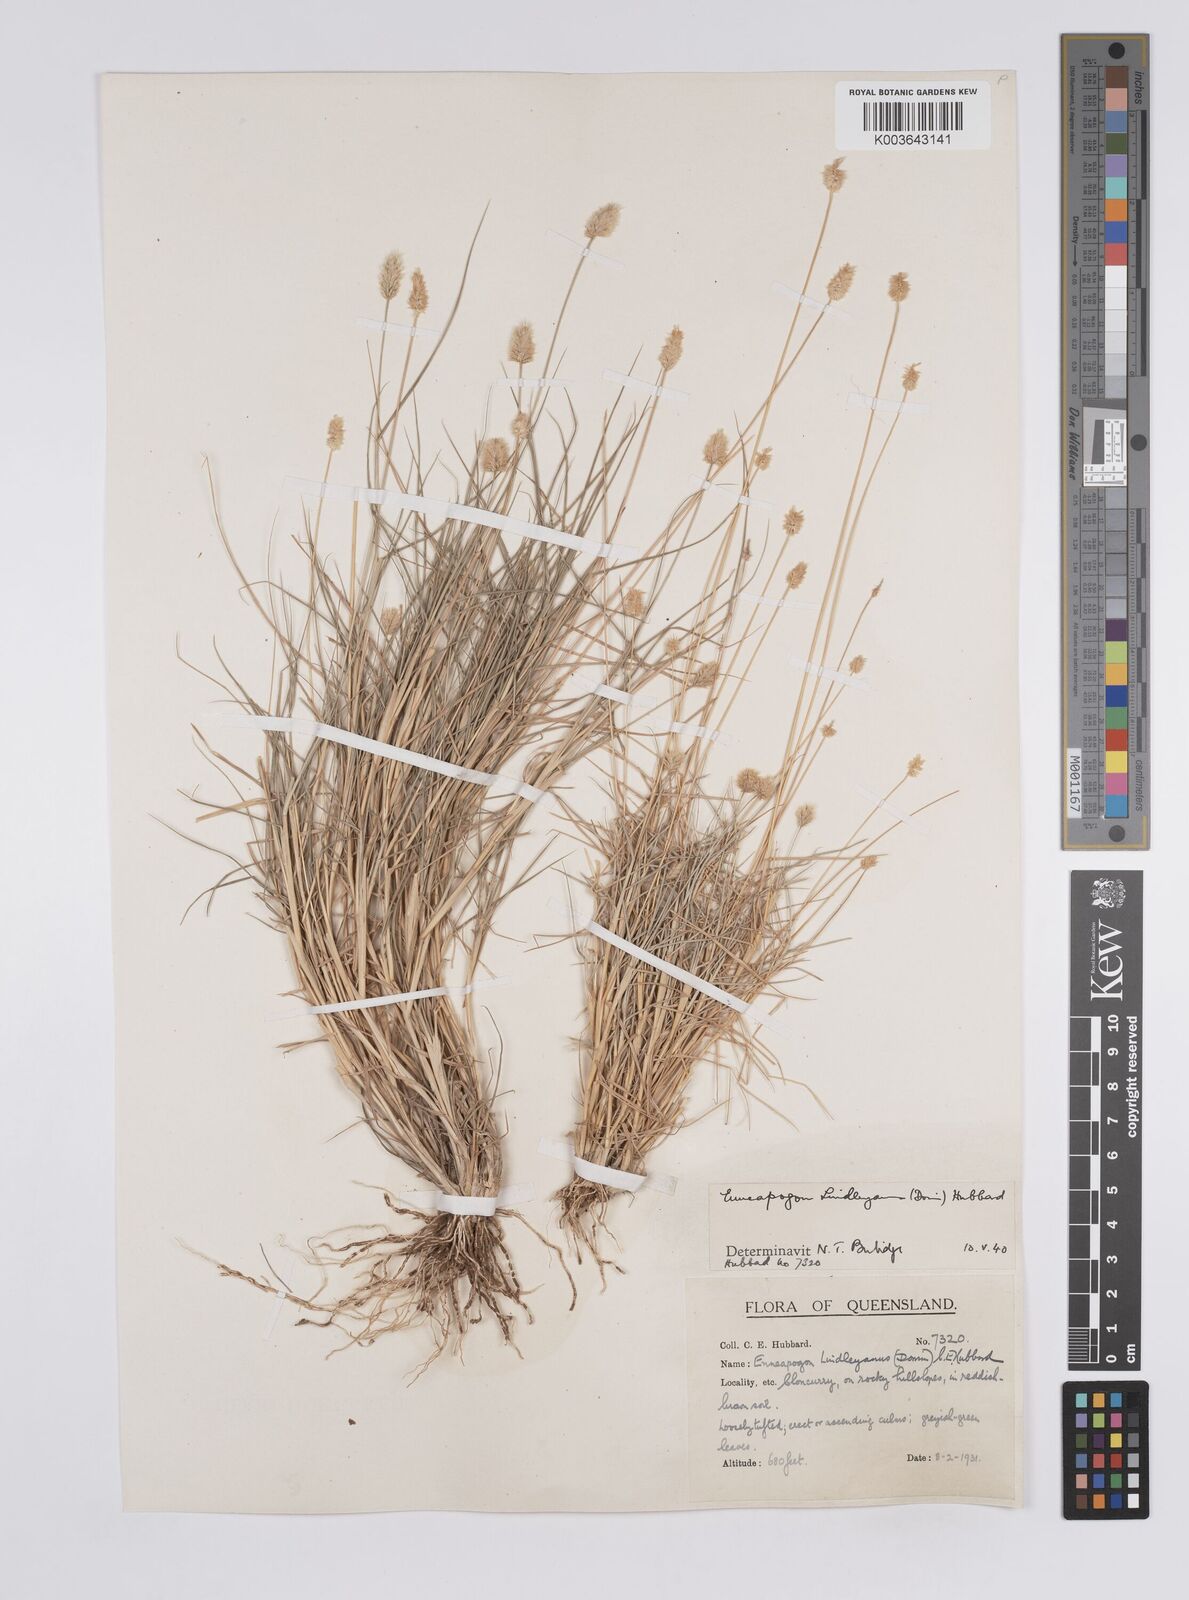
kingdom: Plantae
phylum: Tracheophyta
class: Liliopsida
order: Poales
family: Poaceae
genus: Enneapogon
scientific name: Enneapogon lindleyanus
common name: Conetop nineawn
